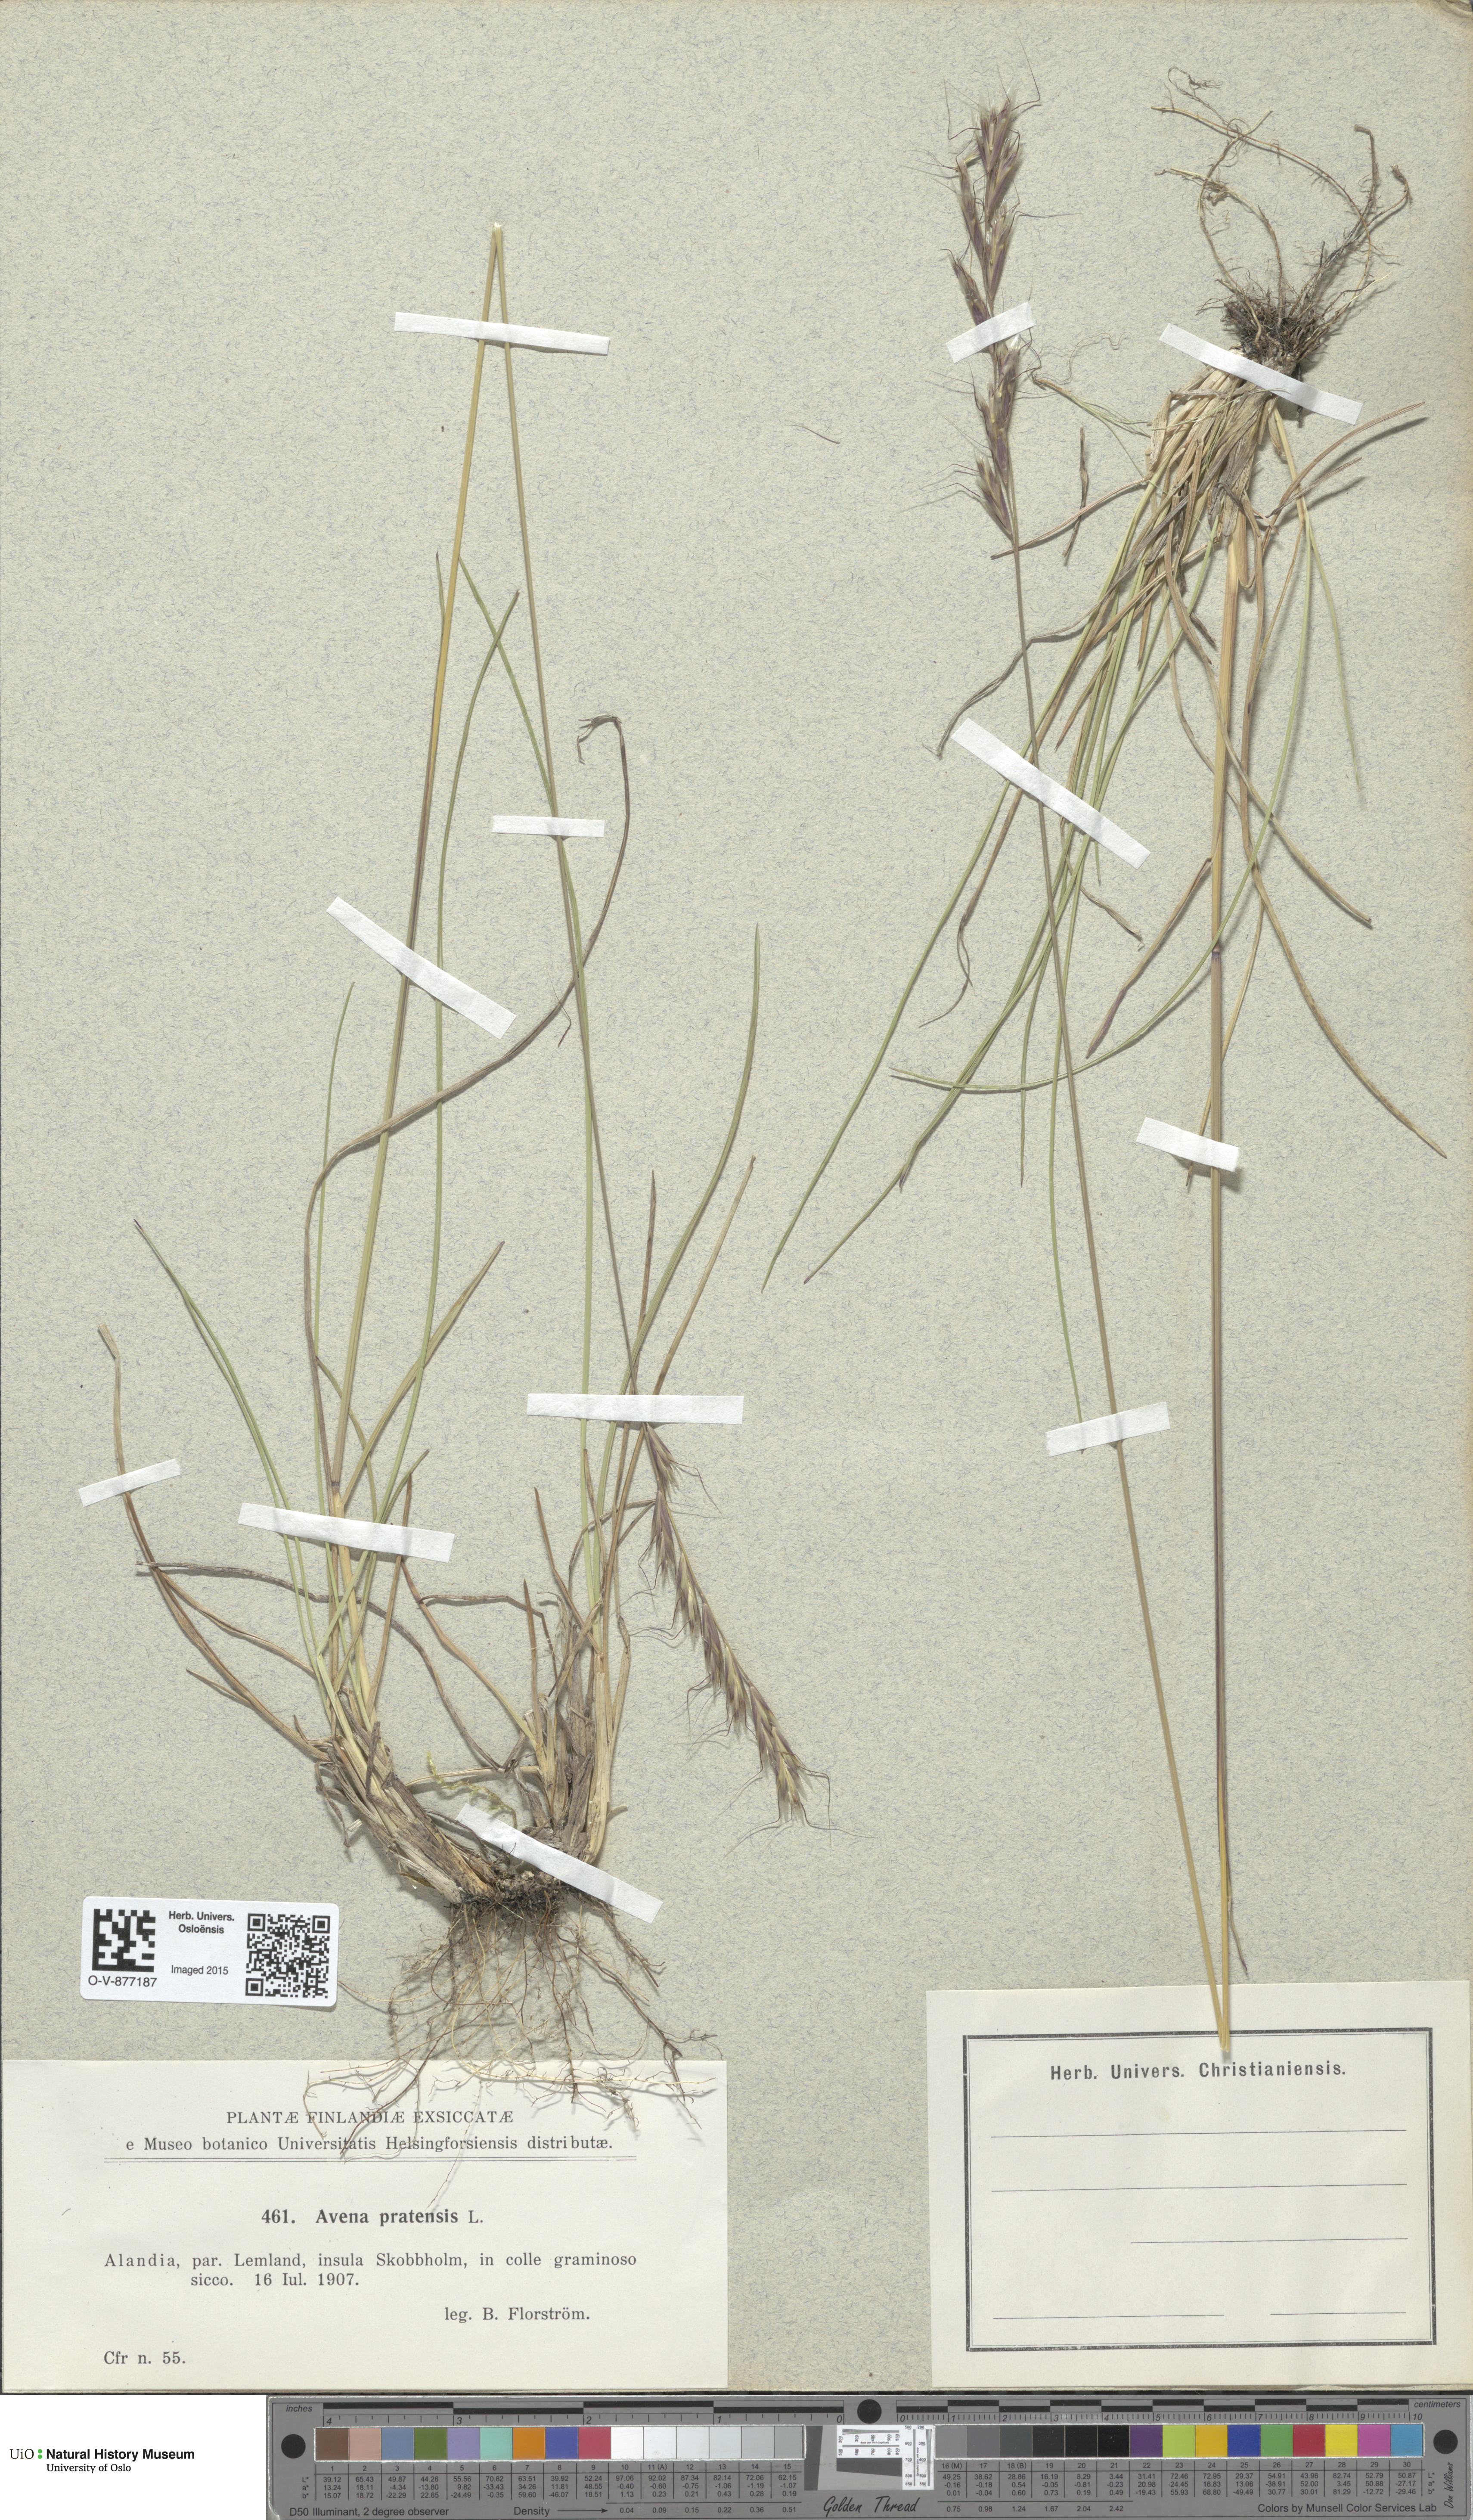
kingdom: Plantae
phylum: Tracheophyta
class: Liliopsida
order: Poales
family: Poaceae
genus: Helictochloa
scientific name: Helictochloa pratensis
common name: Meadow oat grass
